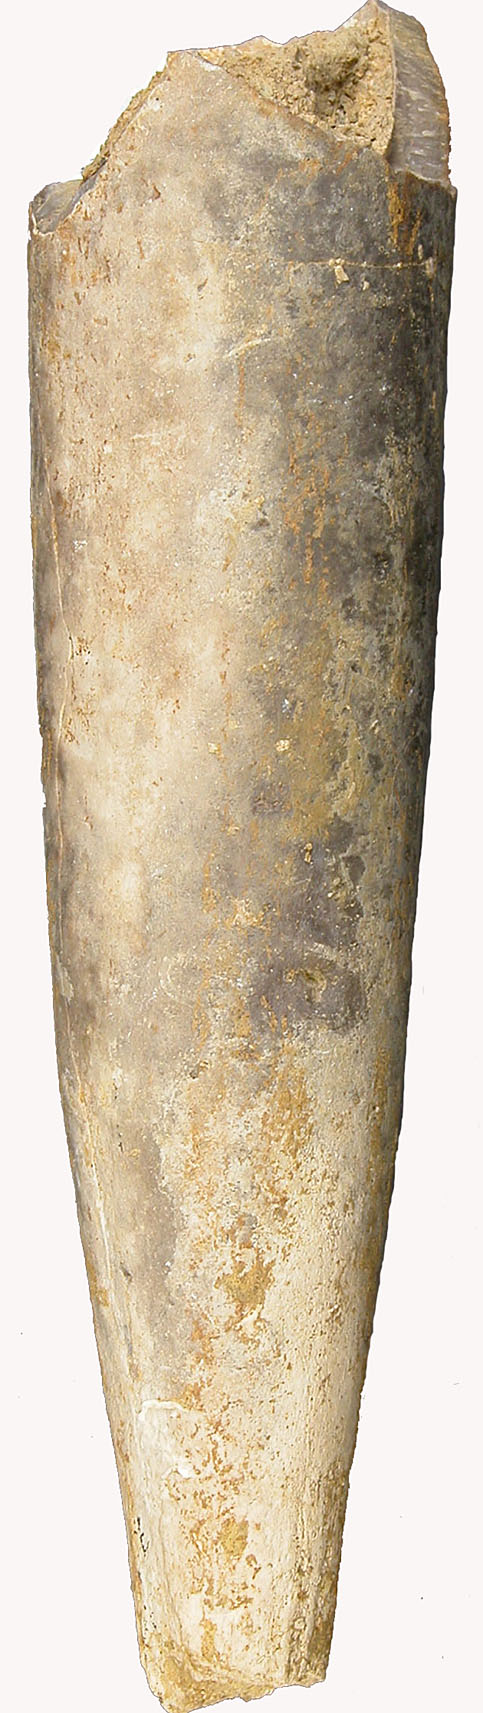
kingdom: Animalia
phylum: Mollusca
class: Cephalopoda
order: Belemnitida
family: Megateuthididae
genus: Megateuthis
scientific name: Megateuthis
